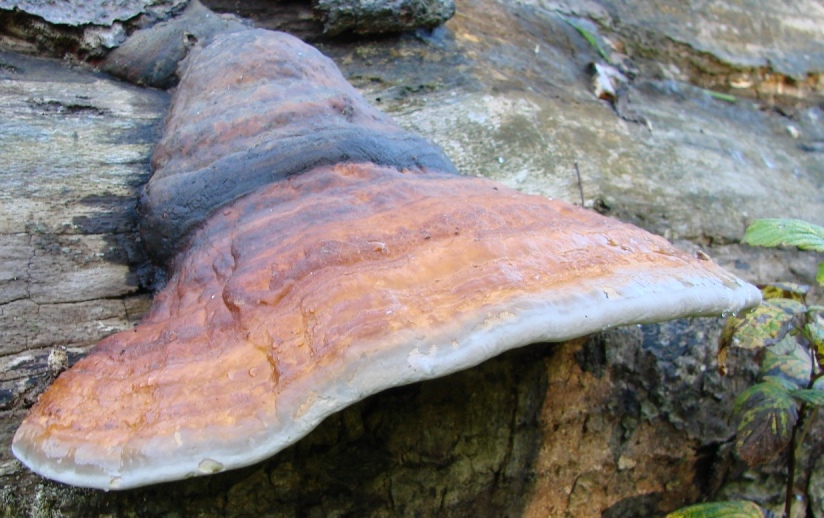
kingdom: Fungi
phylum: Basidiomycota
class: Agaricomycetes
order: Polyporales
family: Fomitopsidaceae
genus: Fomitopsis
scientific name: Fomitopsis pinicola
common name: randbæltet hovporesvamp
